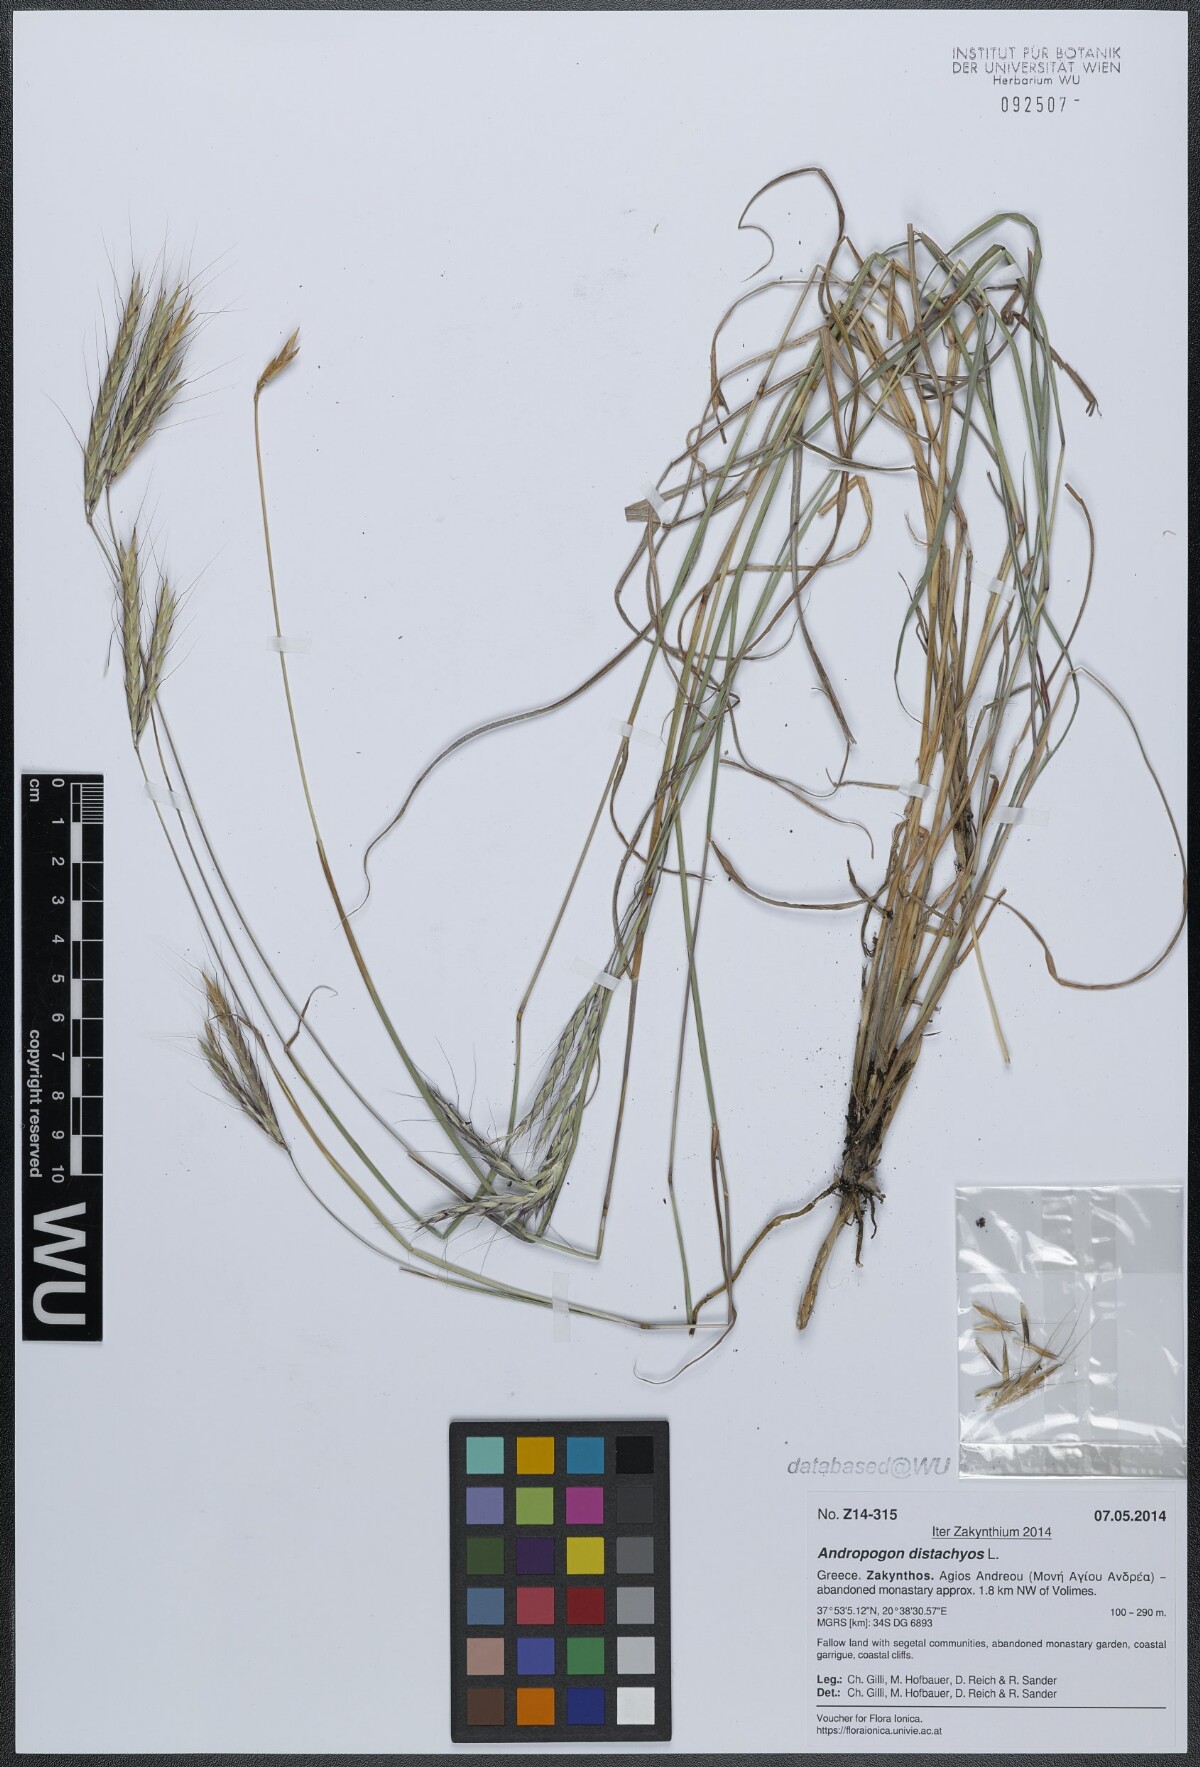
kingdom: Plantae
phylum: Tracheophyta
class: Liliopsida
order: Poales
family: Poaceae
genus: Andropogon
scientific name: Andropogon distachyos
